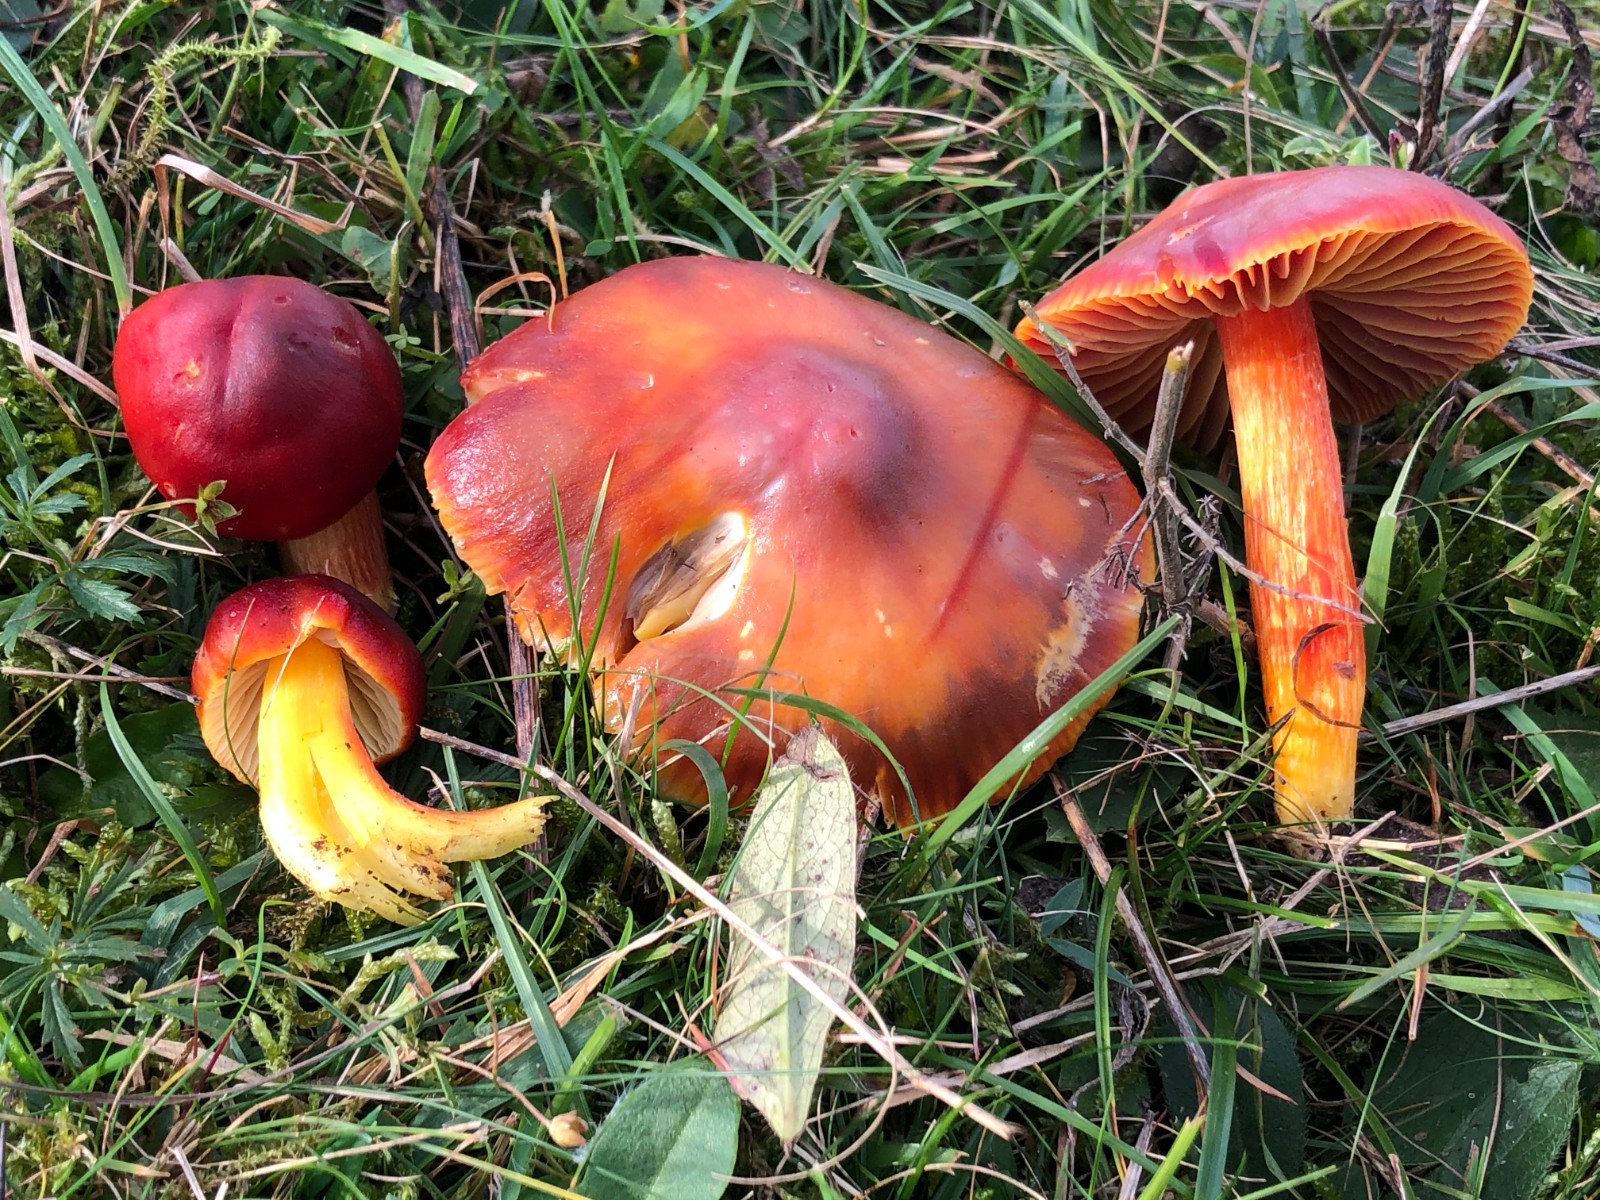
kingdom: Fungi
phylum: Basidiomycota
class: Agaricomycetes
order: Agaricales
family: Hygrophoraceae
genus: Hygrocybe
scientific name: Hygrocybe punicea
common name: skarlagen-vokshat
